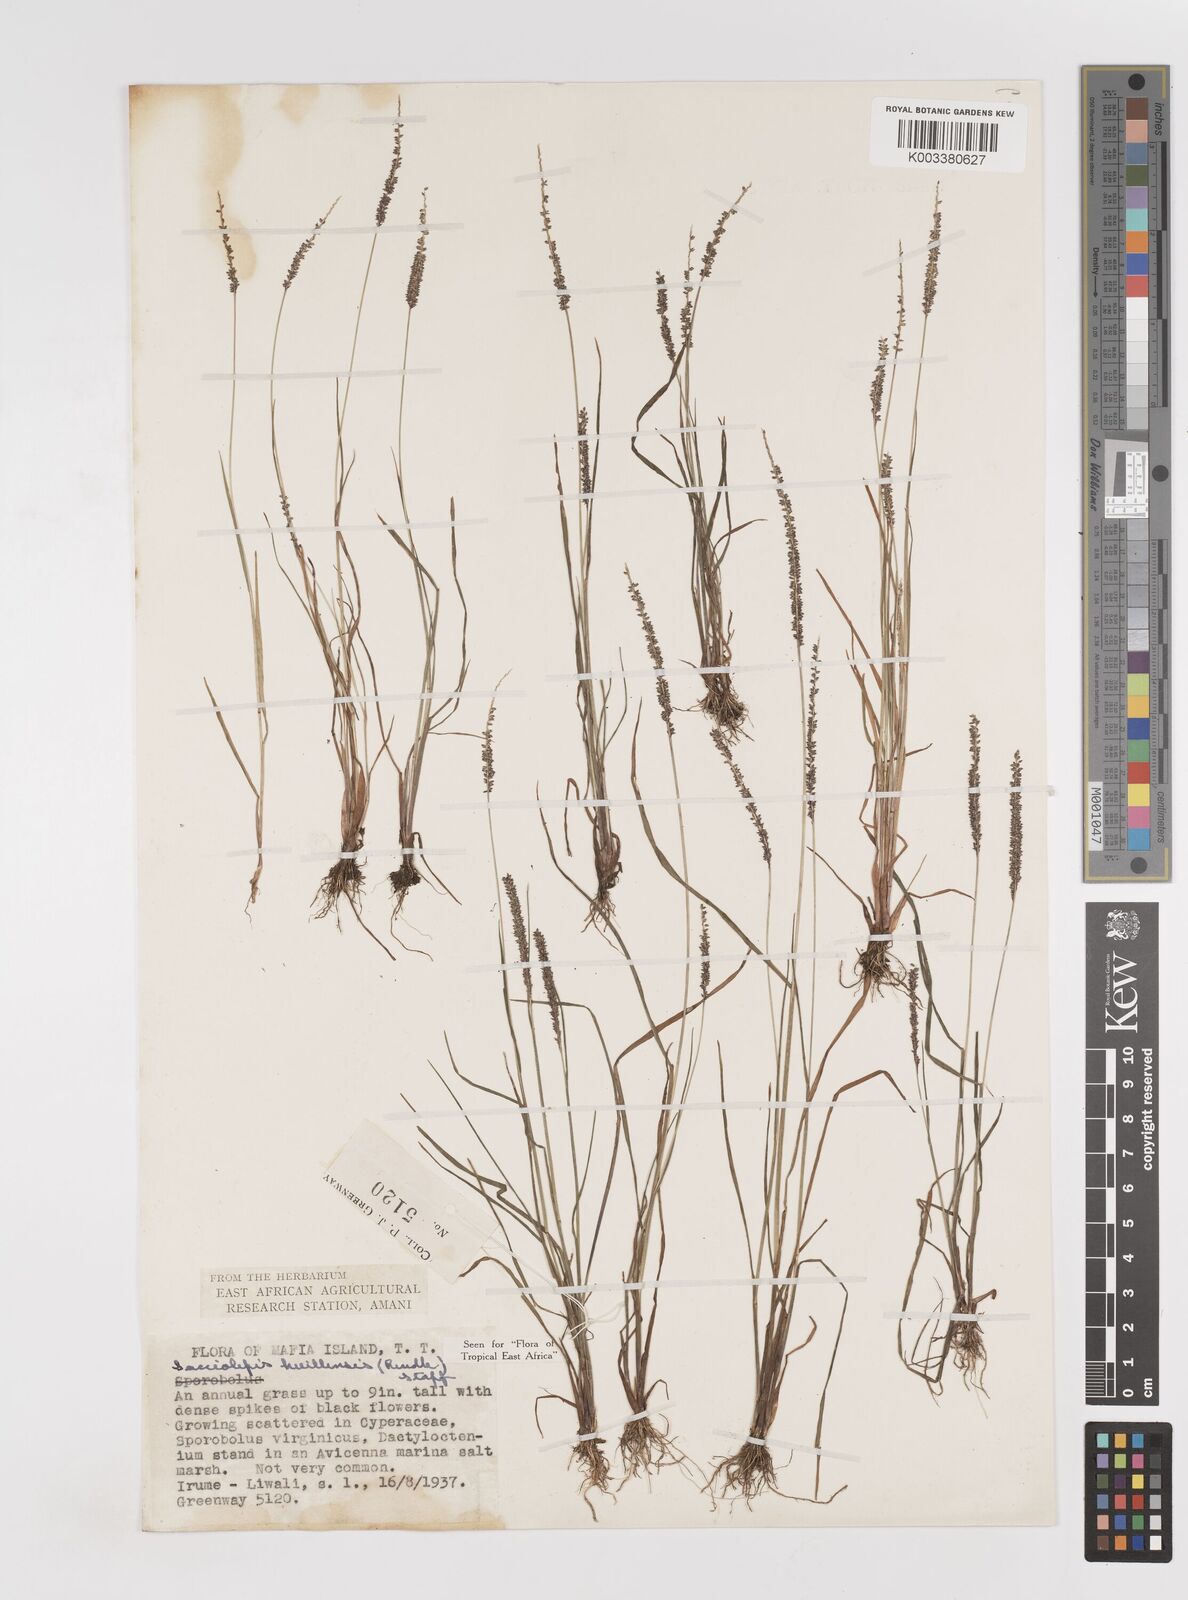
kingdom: Plantae
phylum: Tracheophyta
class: Liliopsida
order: Poales
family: Poaceae
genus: Sacciolepis
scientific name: Sacciolepis myosuroides
